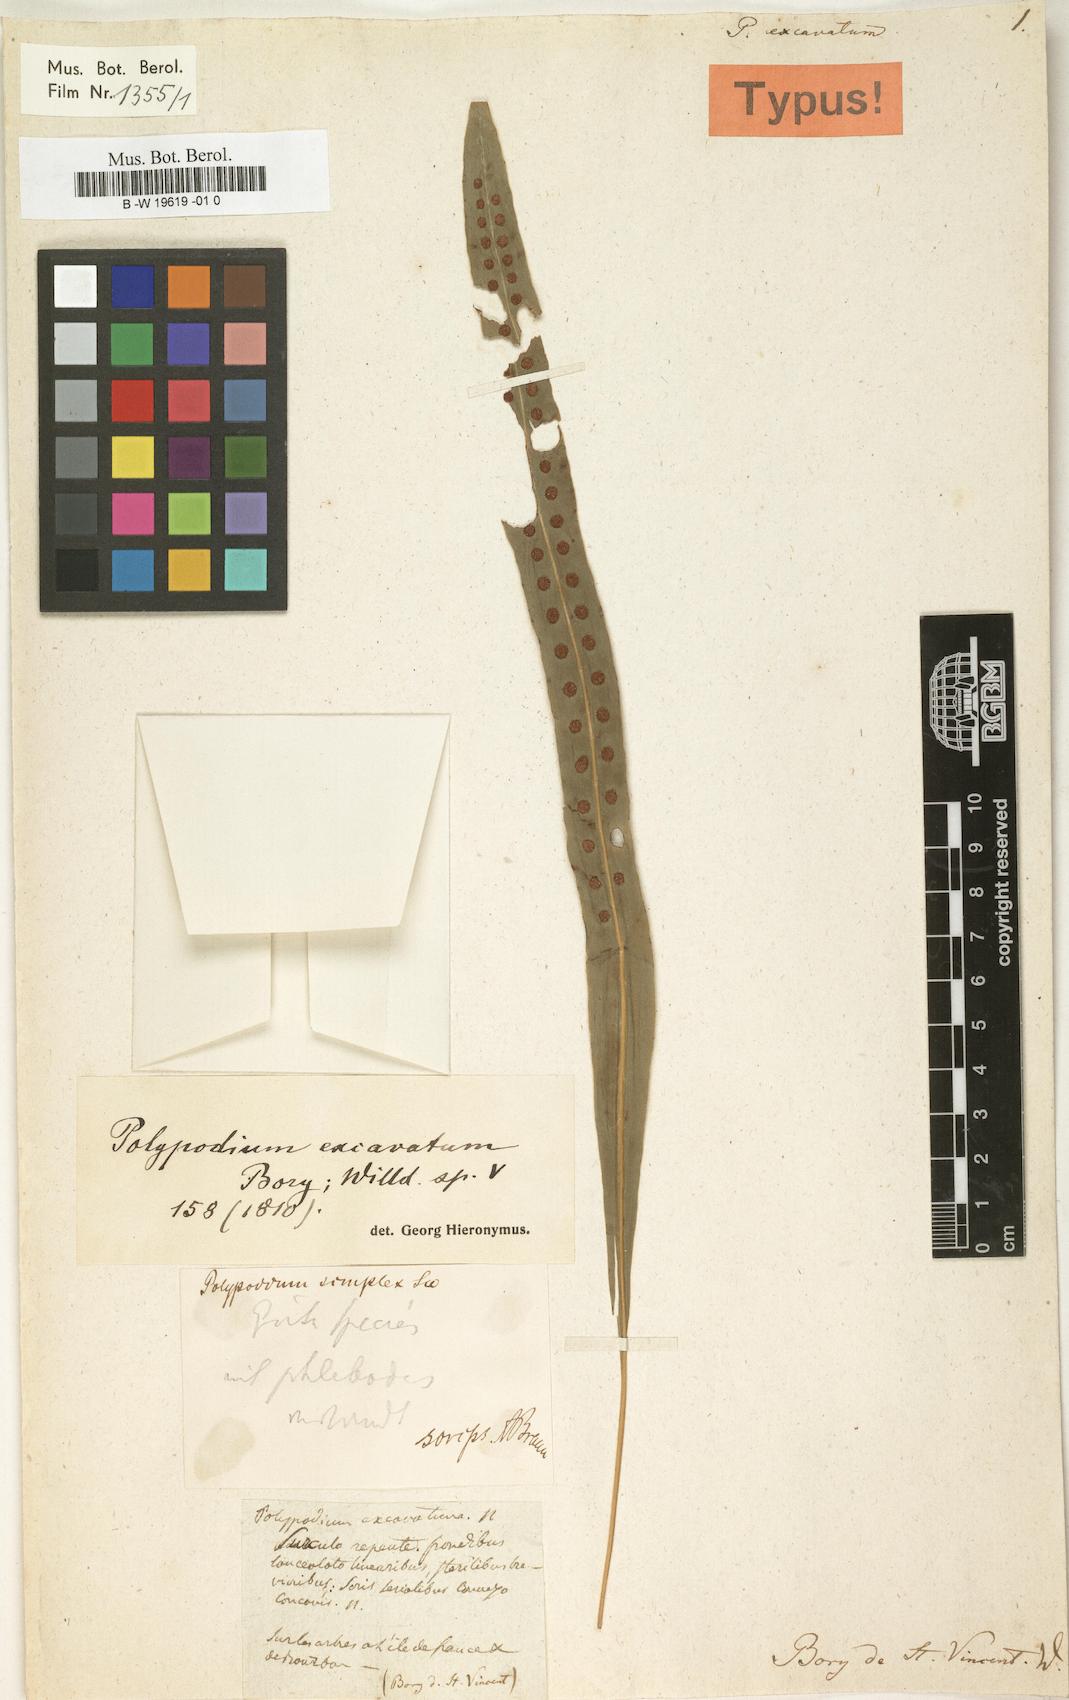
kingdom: Plantae
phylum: Tracheophyta
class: Polypodiopsida
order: Polypodiales
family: Polypodiaceae
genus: Lepisorus
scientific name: Lepisorus excavatus
